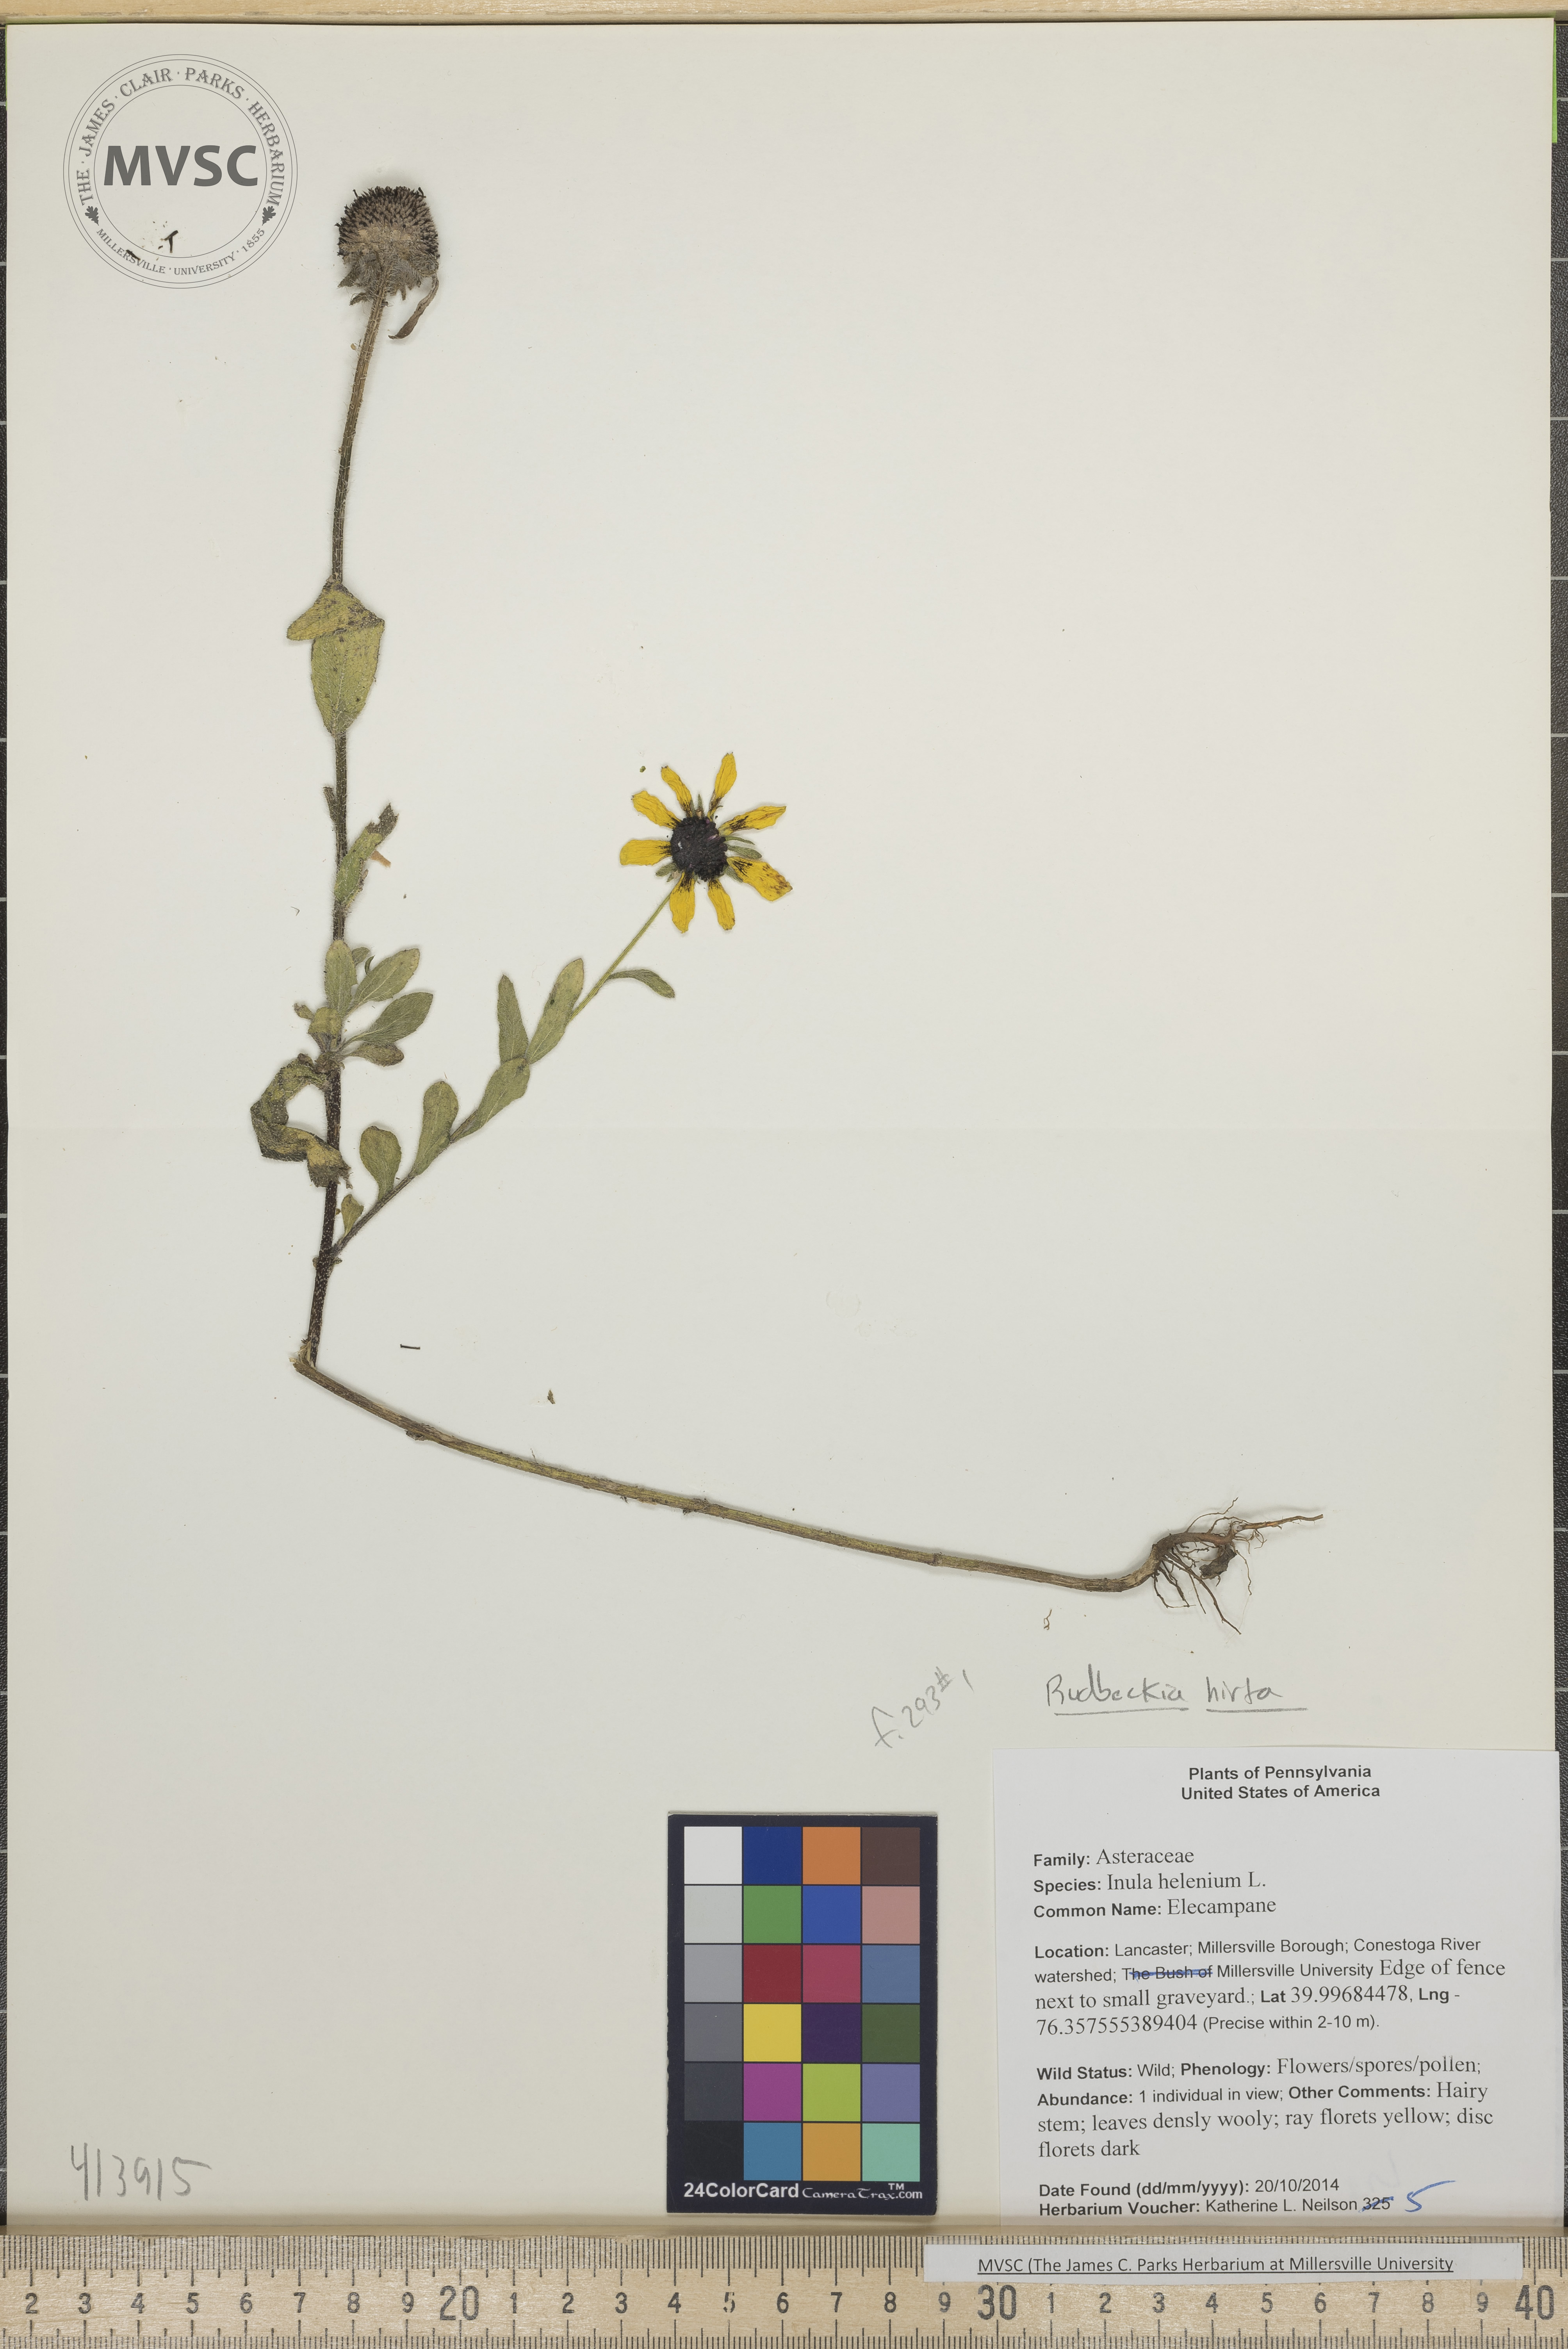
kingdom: Plantae
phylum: Tracheophyta
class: Magnoliopsida
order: Asterales
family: Asteraceae
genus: Rudbeckia
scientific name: Rudbeckia hirta
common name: Black-eyed Susan
